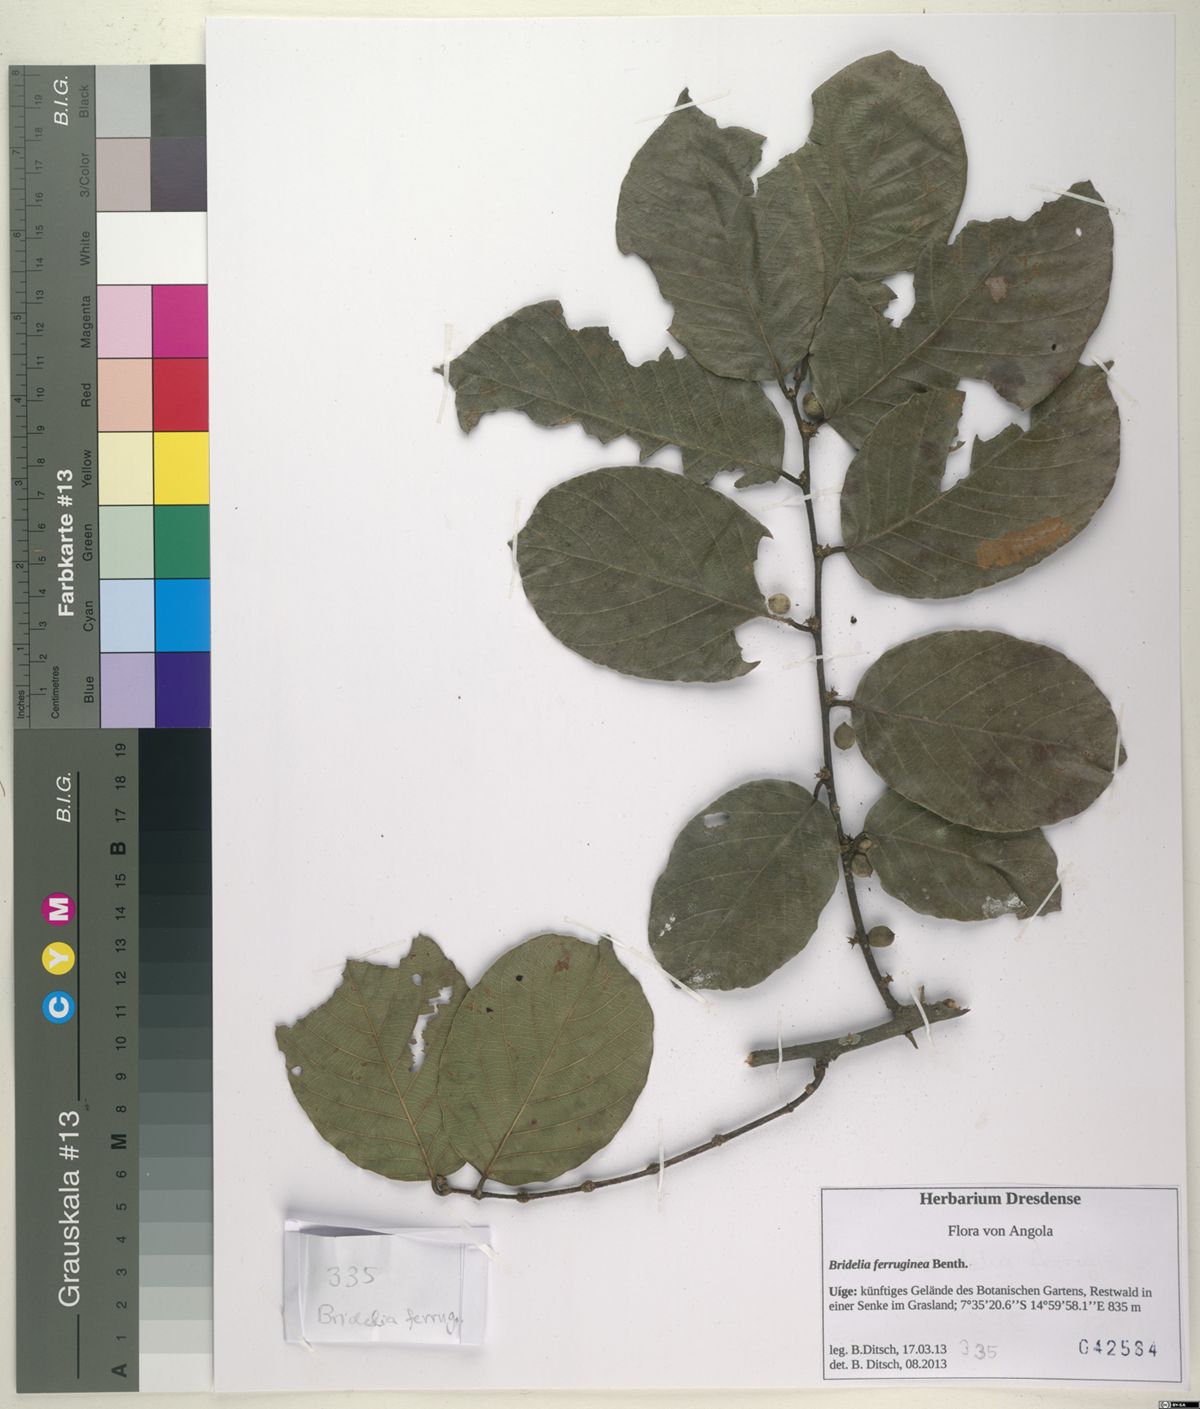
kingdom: Plantae
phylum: Tracheophyta
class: Magnoliopsida
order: Malpighiales
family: Phyllanthaceae
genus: Bridelia
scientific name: Bridelia ferruginea
